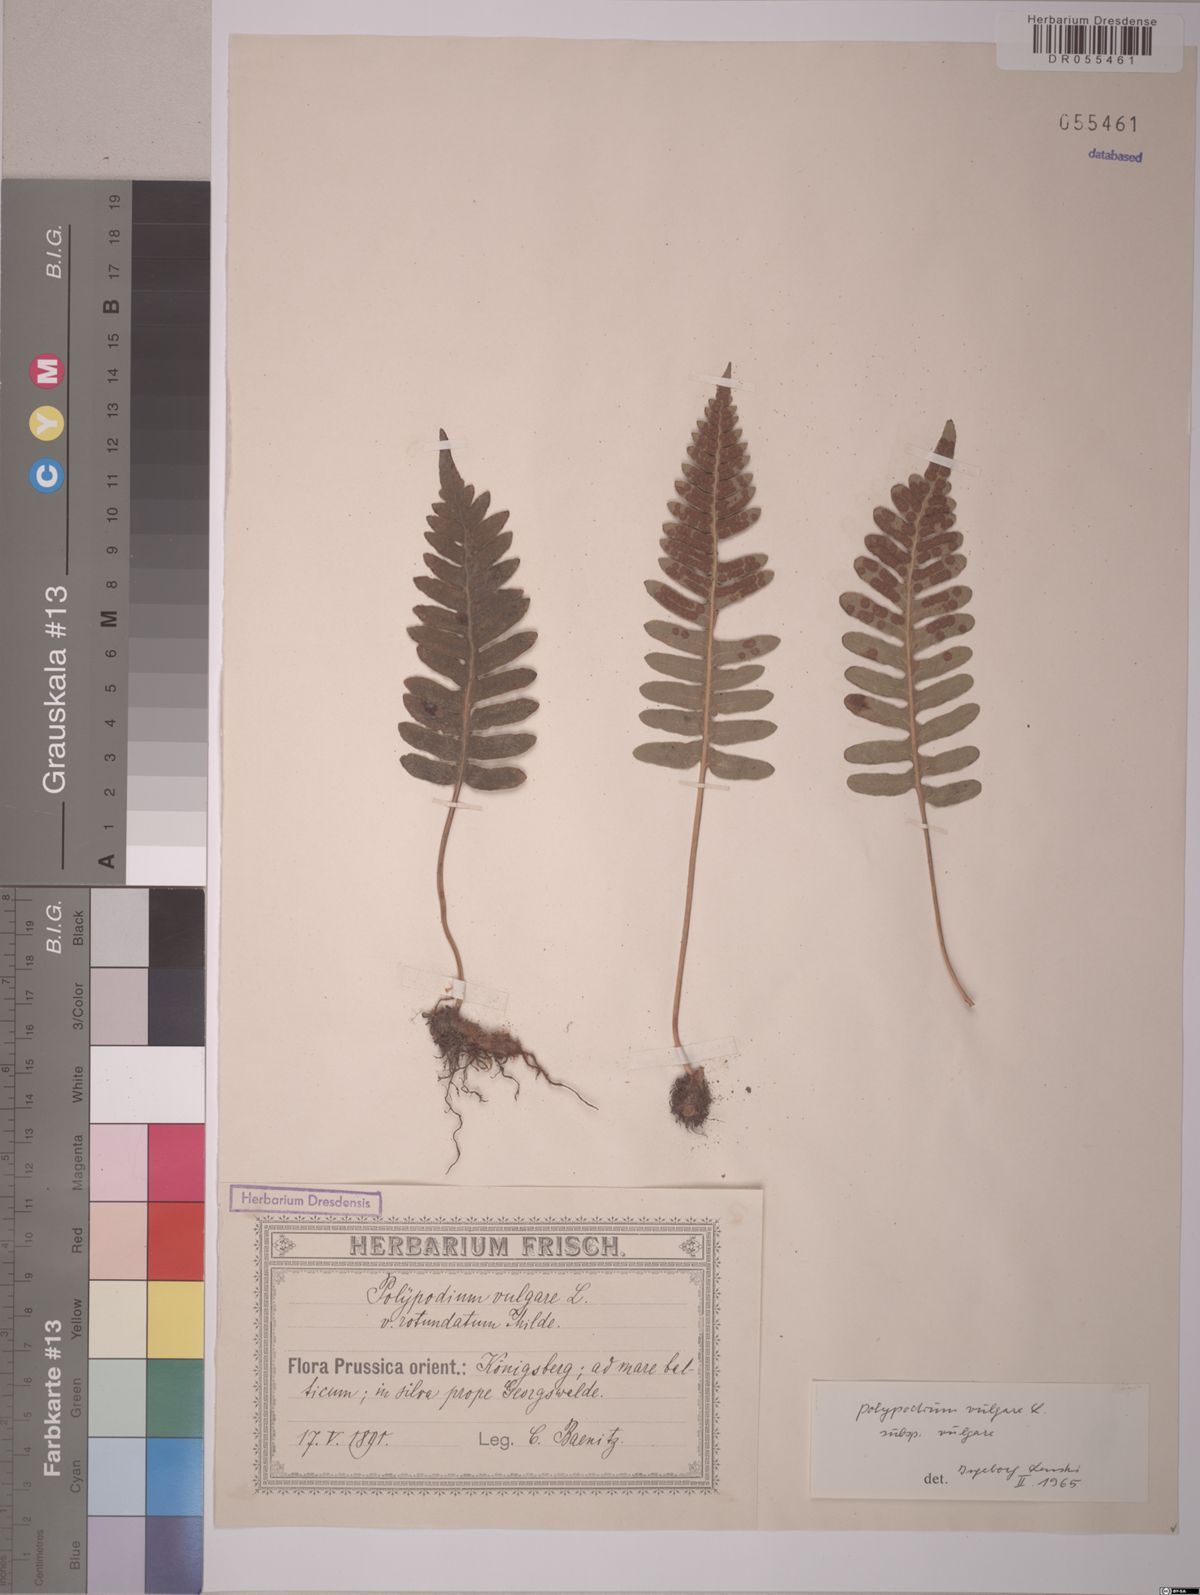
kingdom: Plantae
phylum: Tracheophyta
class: Polypodiopsida
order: Polypodiales
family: Polypodiaceae
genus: Polypodium
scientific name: Polypodium vulgare
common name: Common polypody
